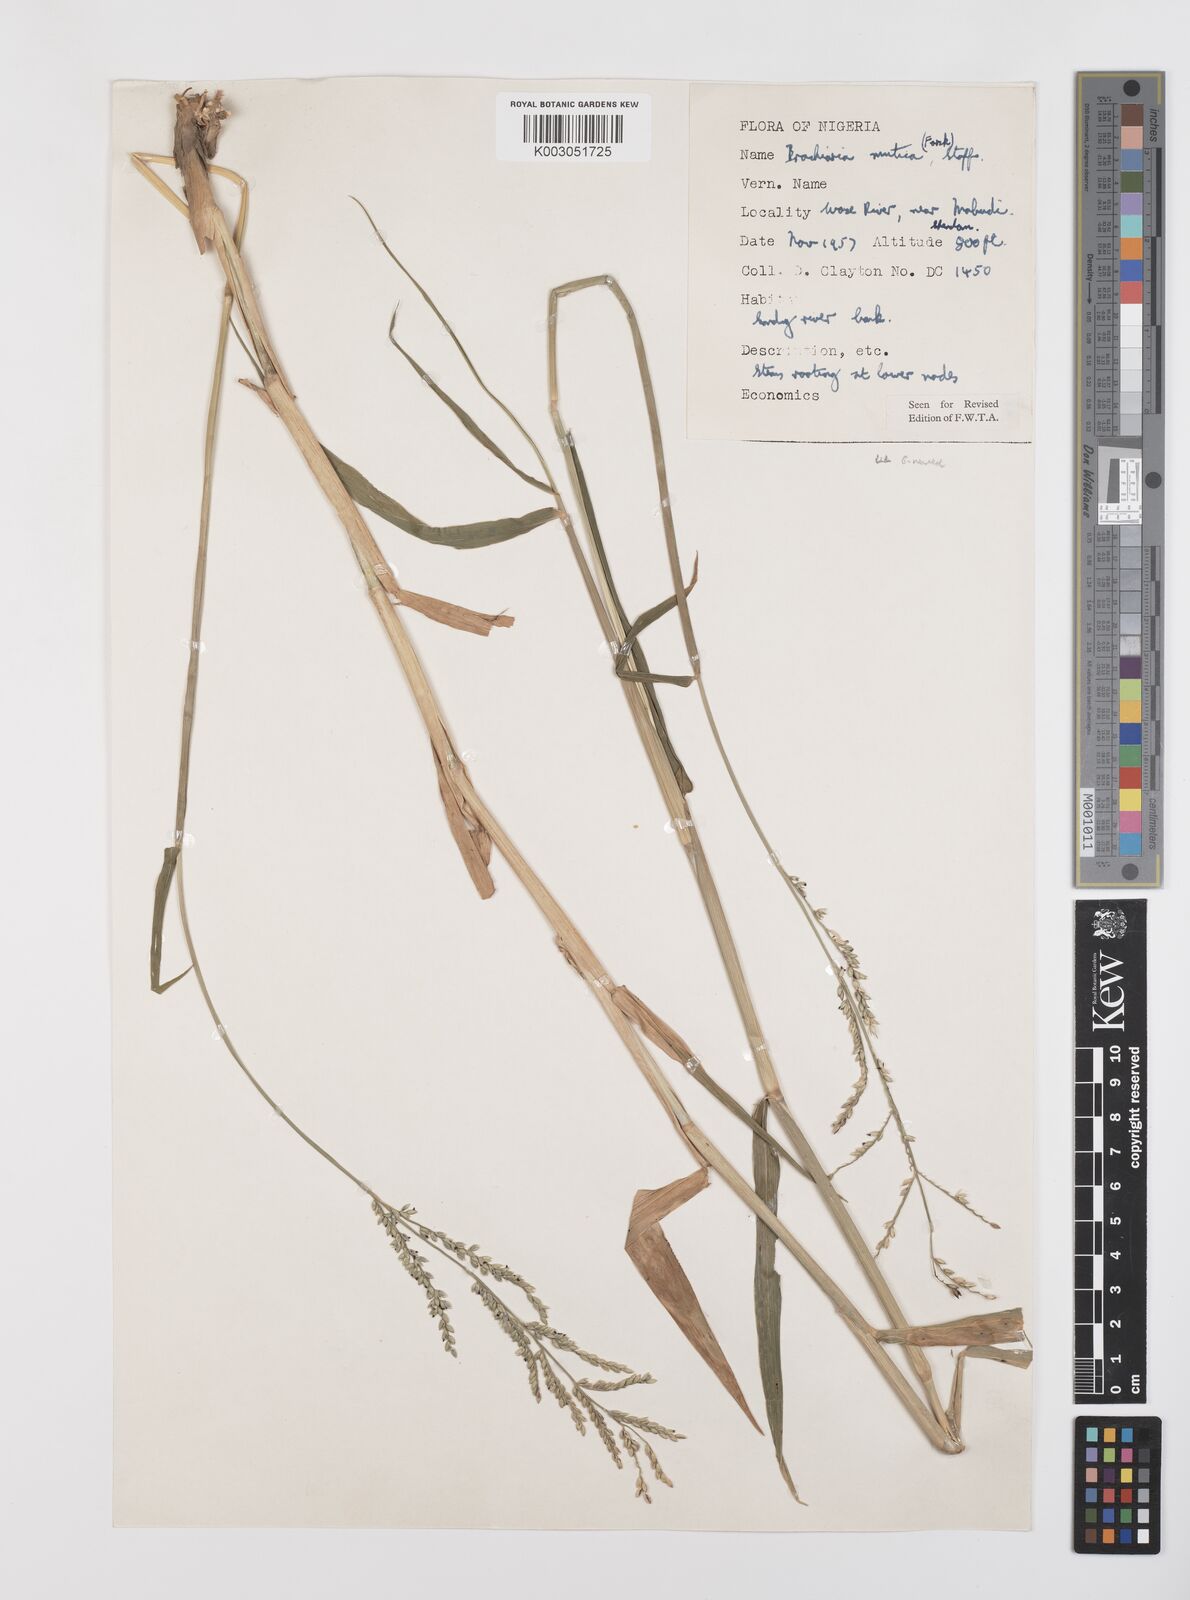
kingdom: Plantae
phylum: Tracheophyta
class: Liliopsida
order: Poales
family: Poaceae
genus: Urochloa
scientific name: Urochloa mutica
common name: Para grass
